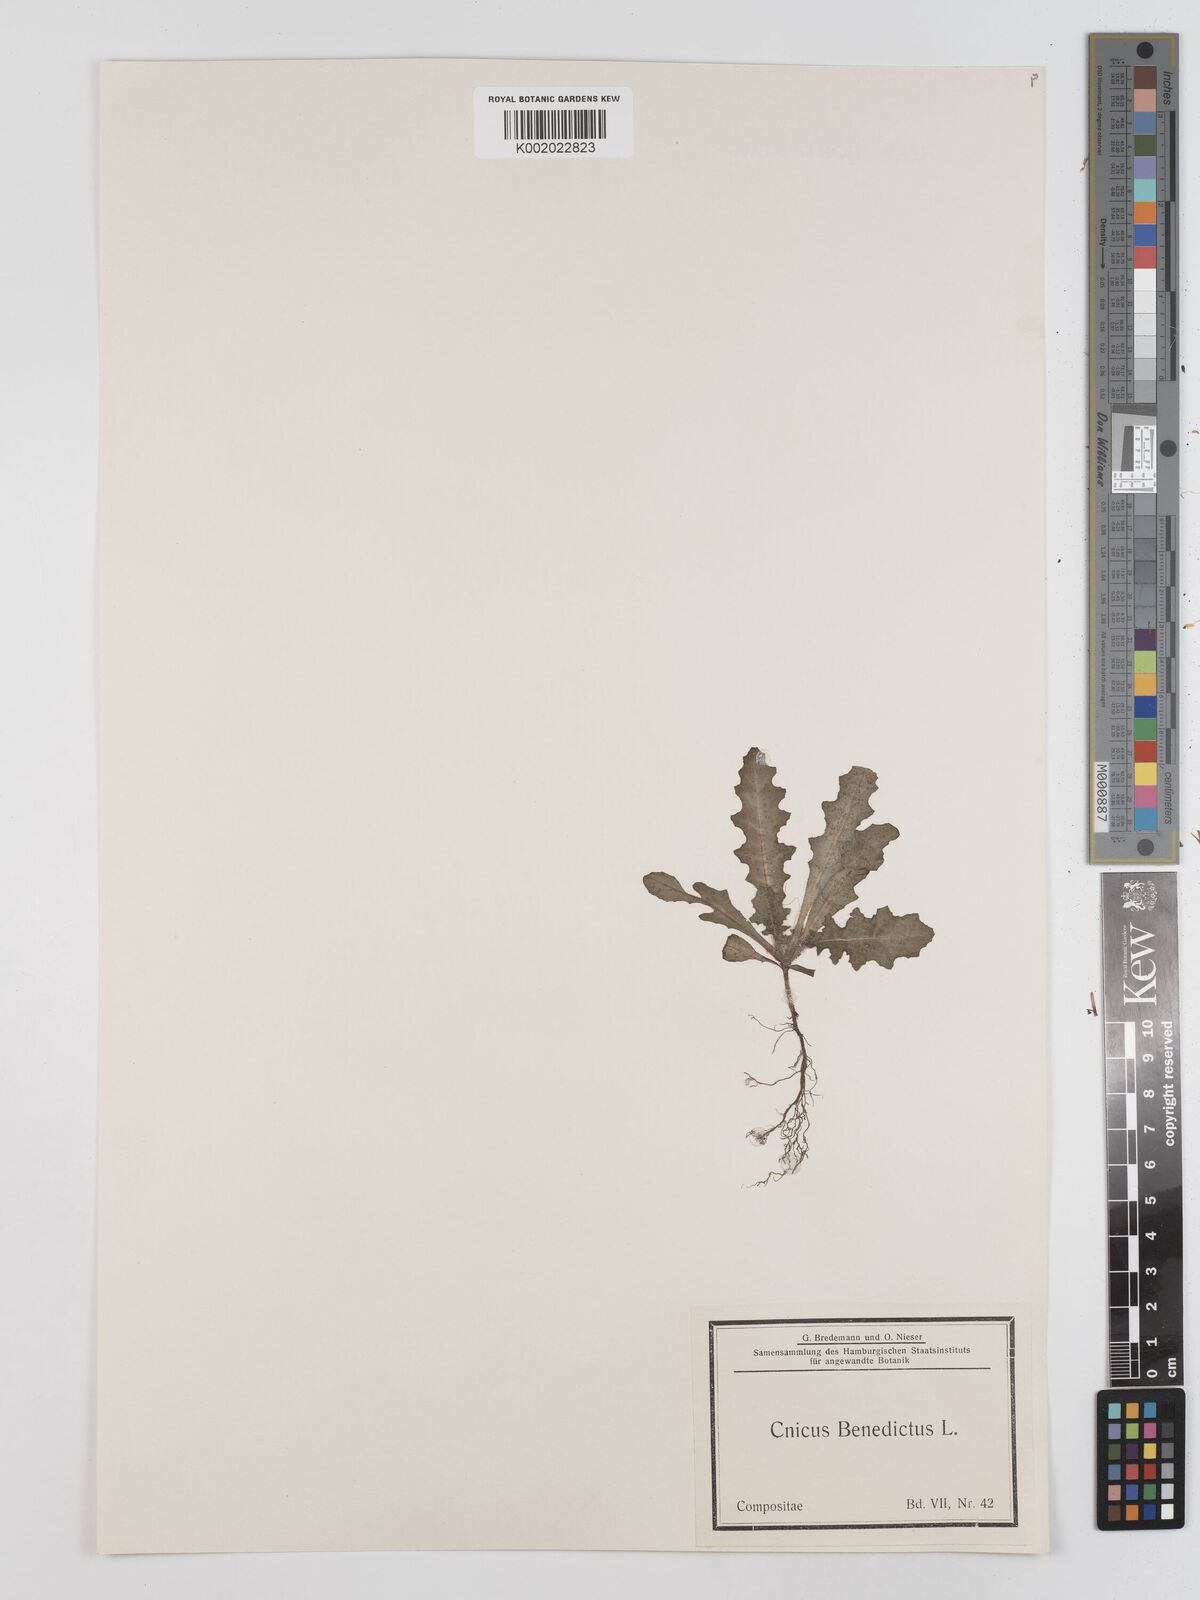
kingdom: Plantae
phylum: Tracheophyta
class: Magnoliopsida
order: Asterales
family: Asteraceae
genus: Centaurea
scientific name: Centaurea benedicta
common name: Blessed thistle
